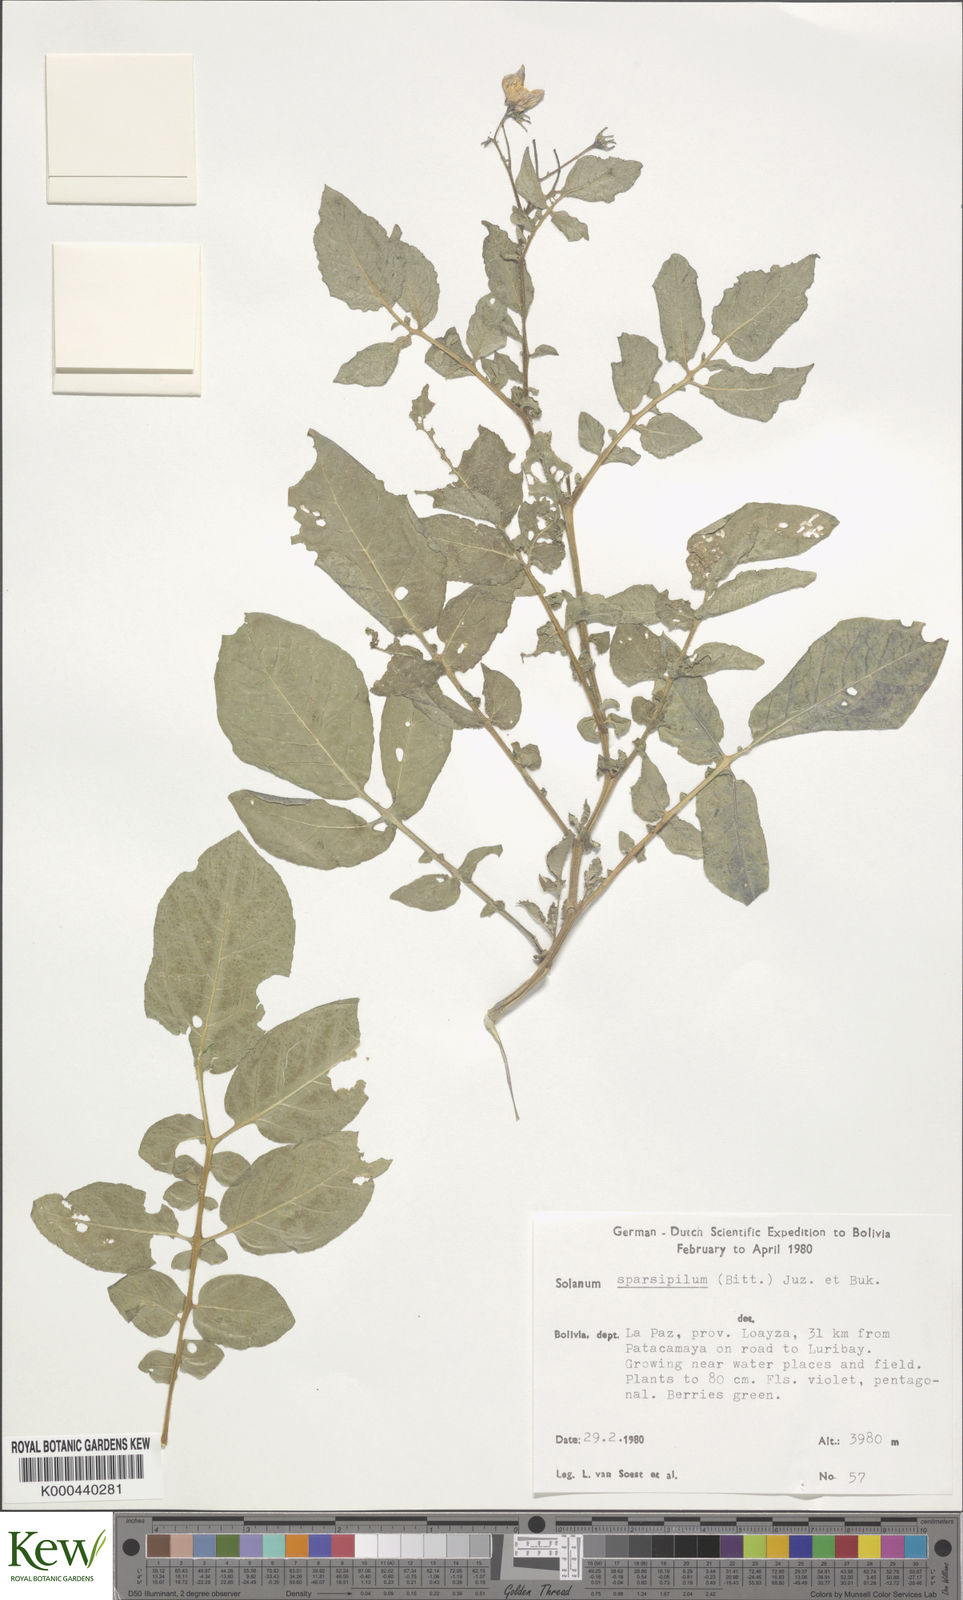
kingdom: Plantae
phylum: Tracheophyta
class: Magnoliopsida
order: Solanales
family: Solanaceae
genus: Solanum
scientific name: Solanum brevicaule
